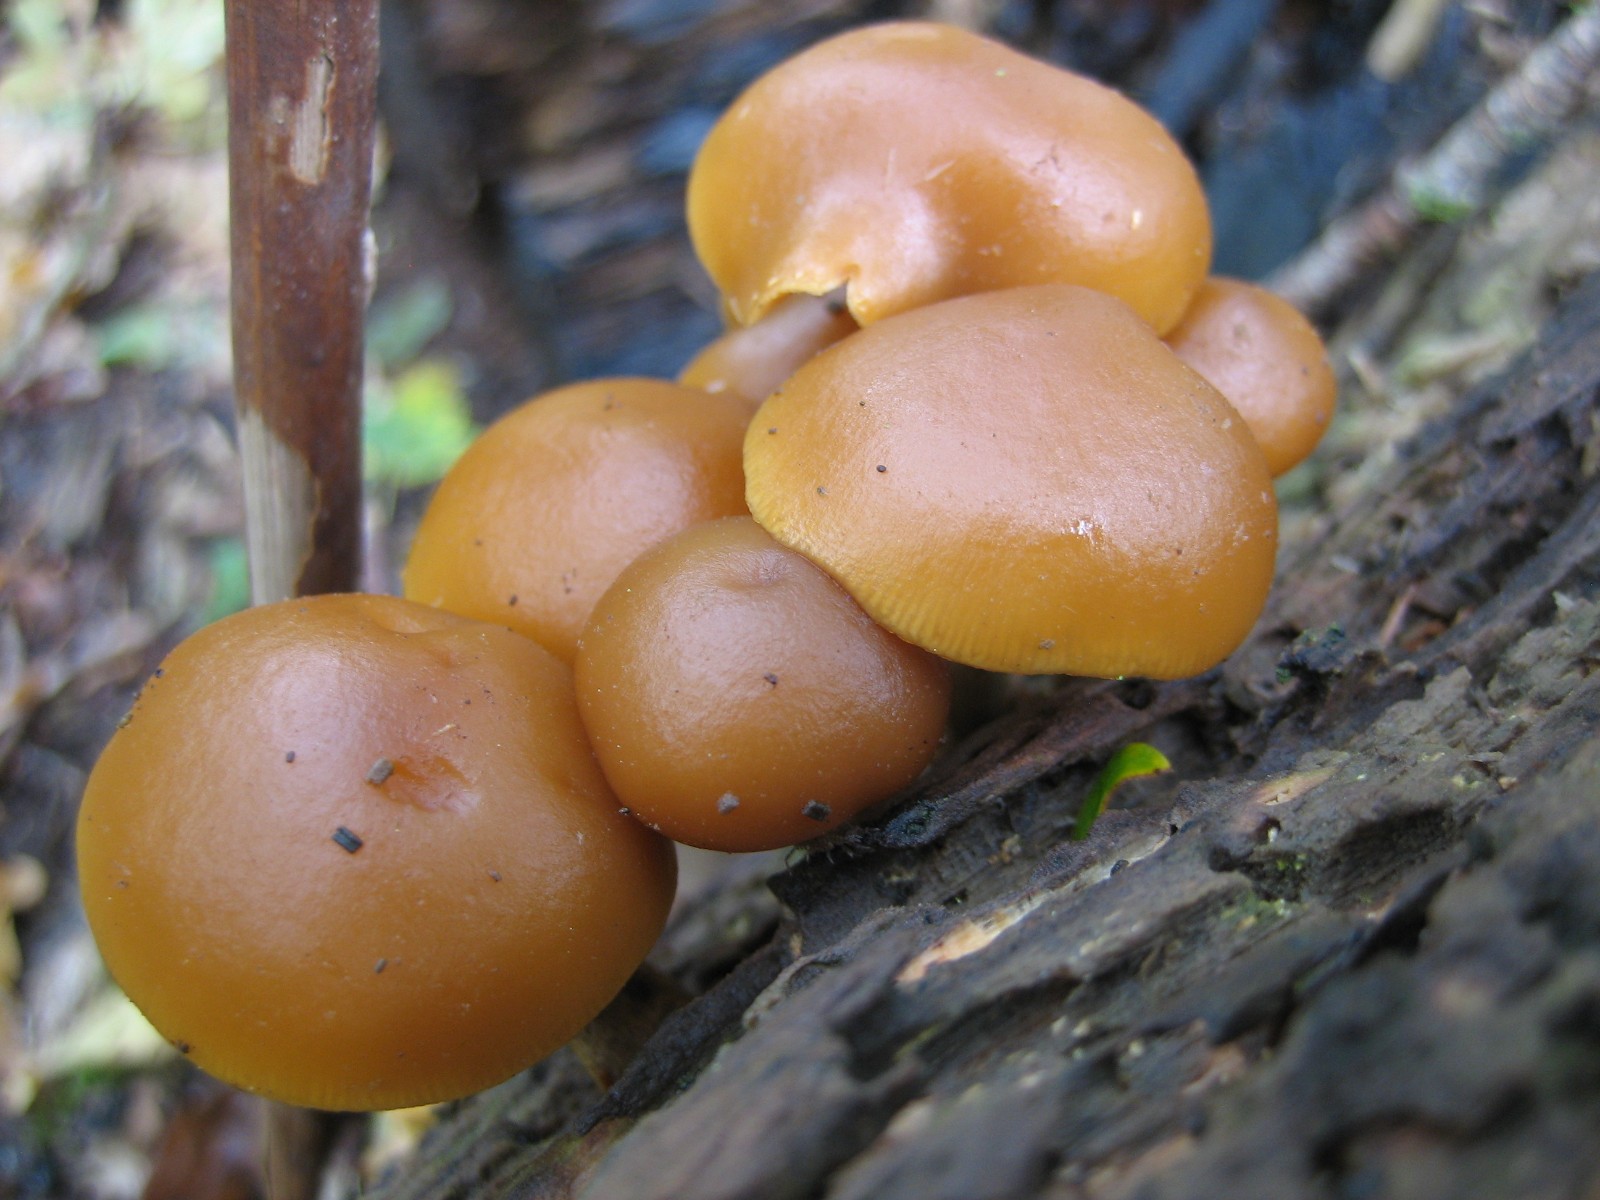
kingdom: Fungi
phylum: Basidiomycota
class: Agaricomycetes
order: Agaricales
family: Hymenogastraceae
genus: Galerina
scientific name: Galerina marginata
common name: randbæltet hjelmhat
